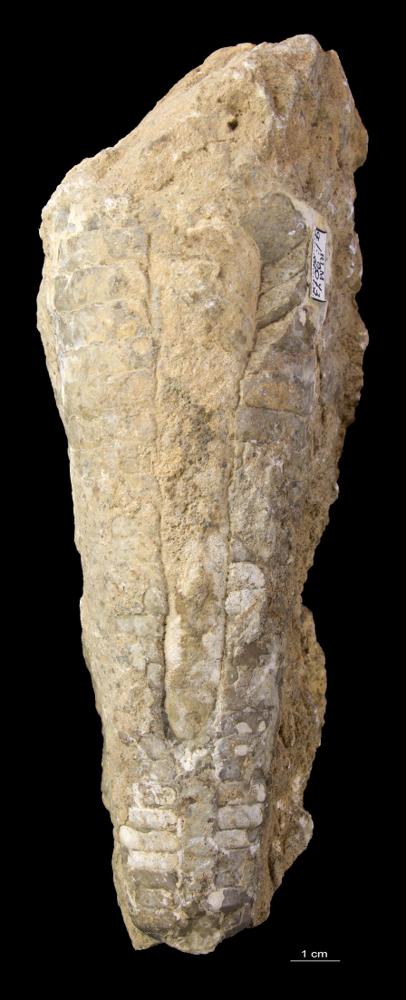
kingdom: Animalia
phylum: Mollusca
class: Cephalopoda
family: Endoceratidae
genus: Endoceras
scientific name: Endoceras
